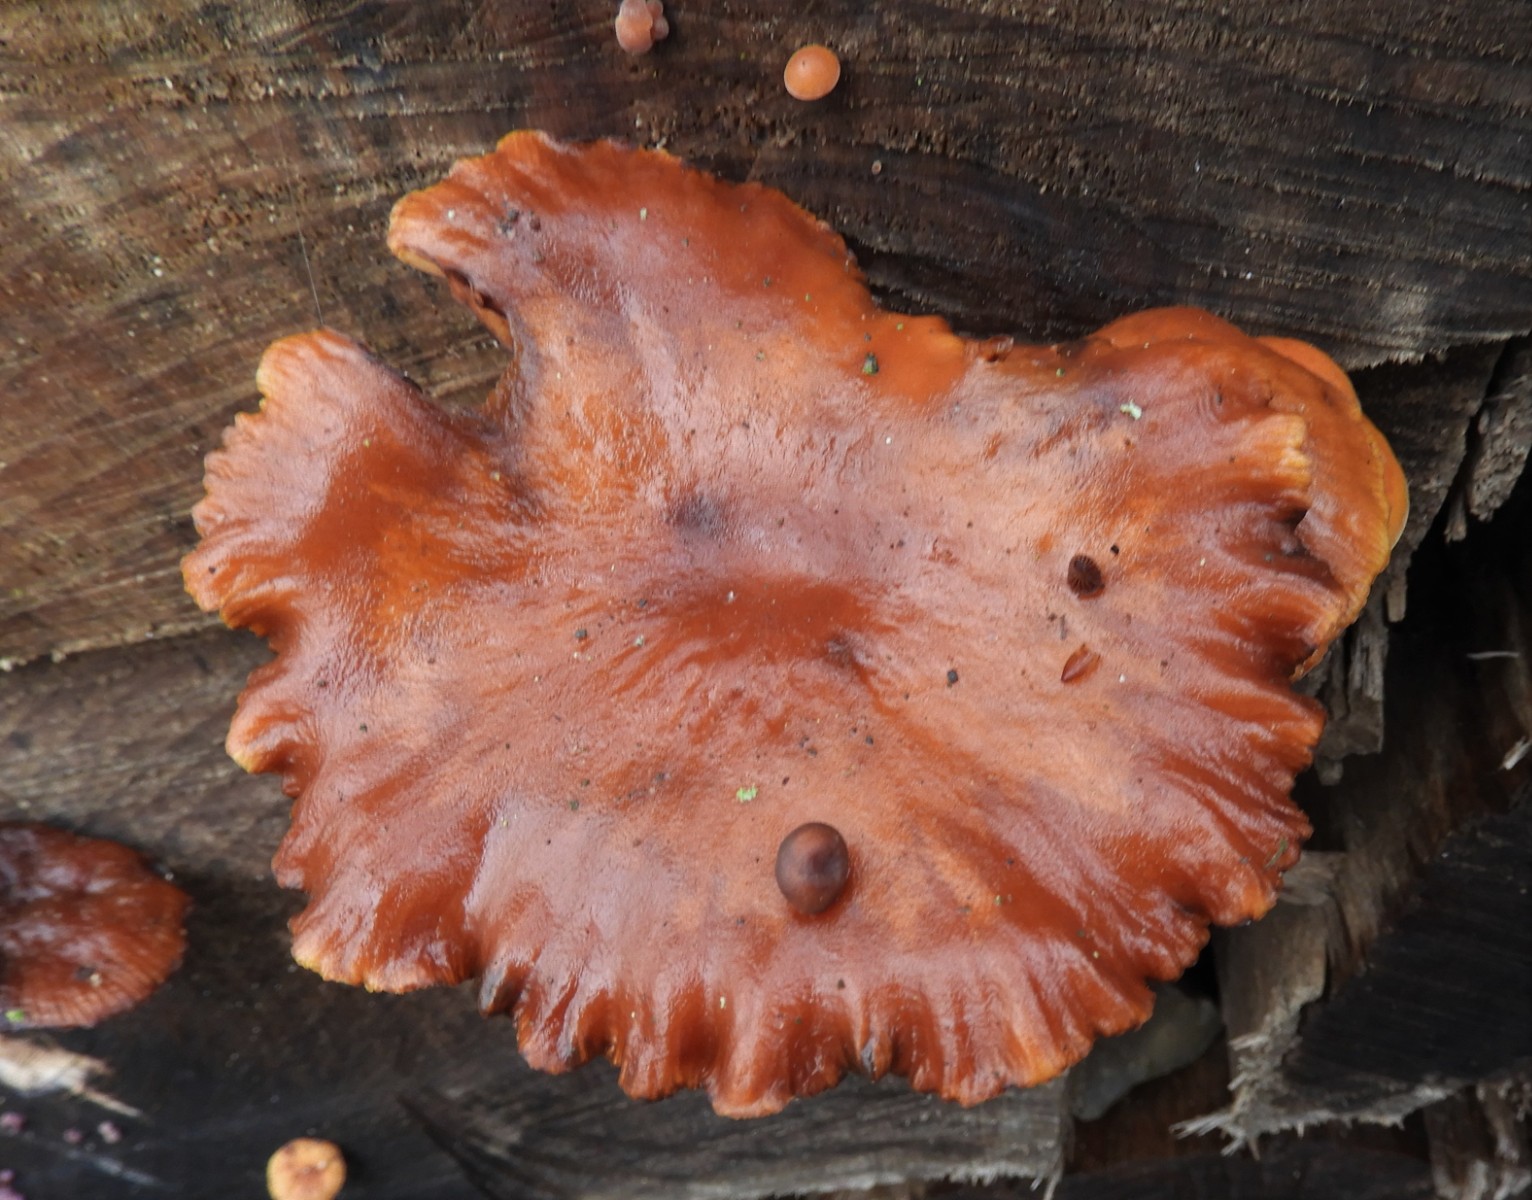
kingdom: Fungi
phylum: Basidiomycota
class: Agaricomycetes
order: Agaricales
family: Physalacriaceae
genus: Flammulina
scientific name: Flammulina velutipes
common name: gul fløjlsfod
